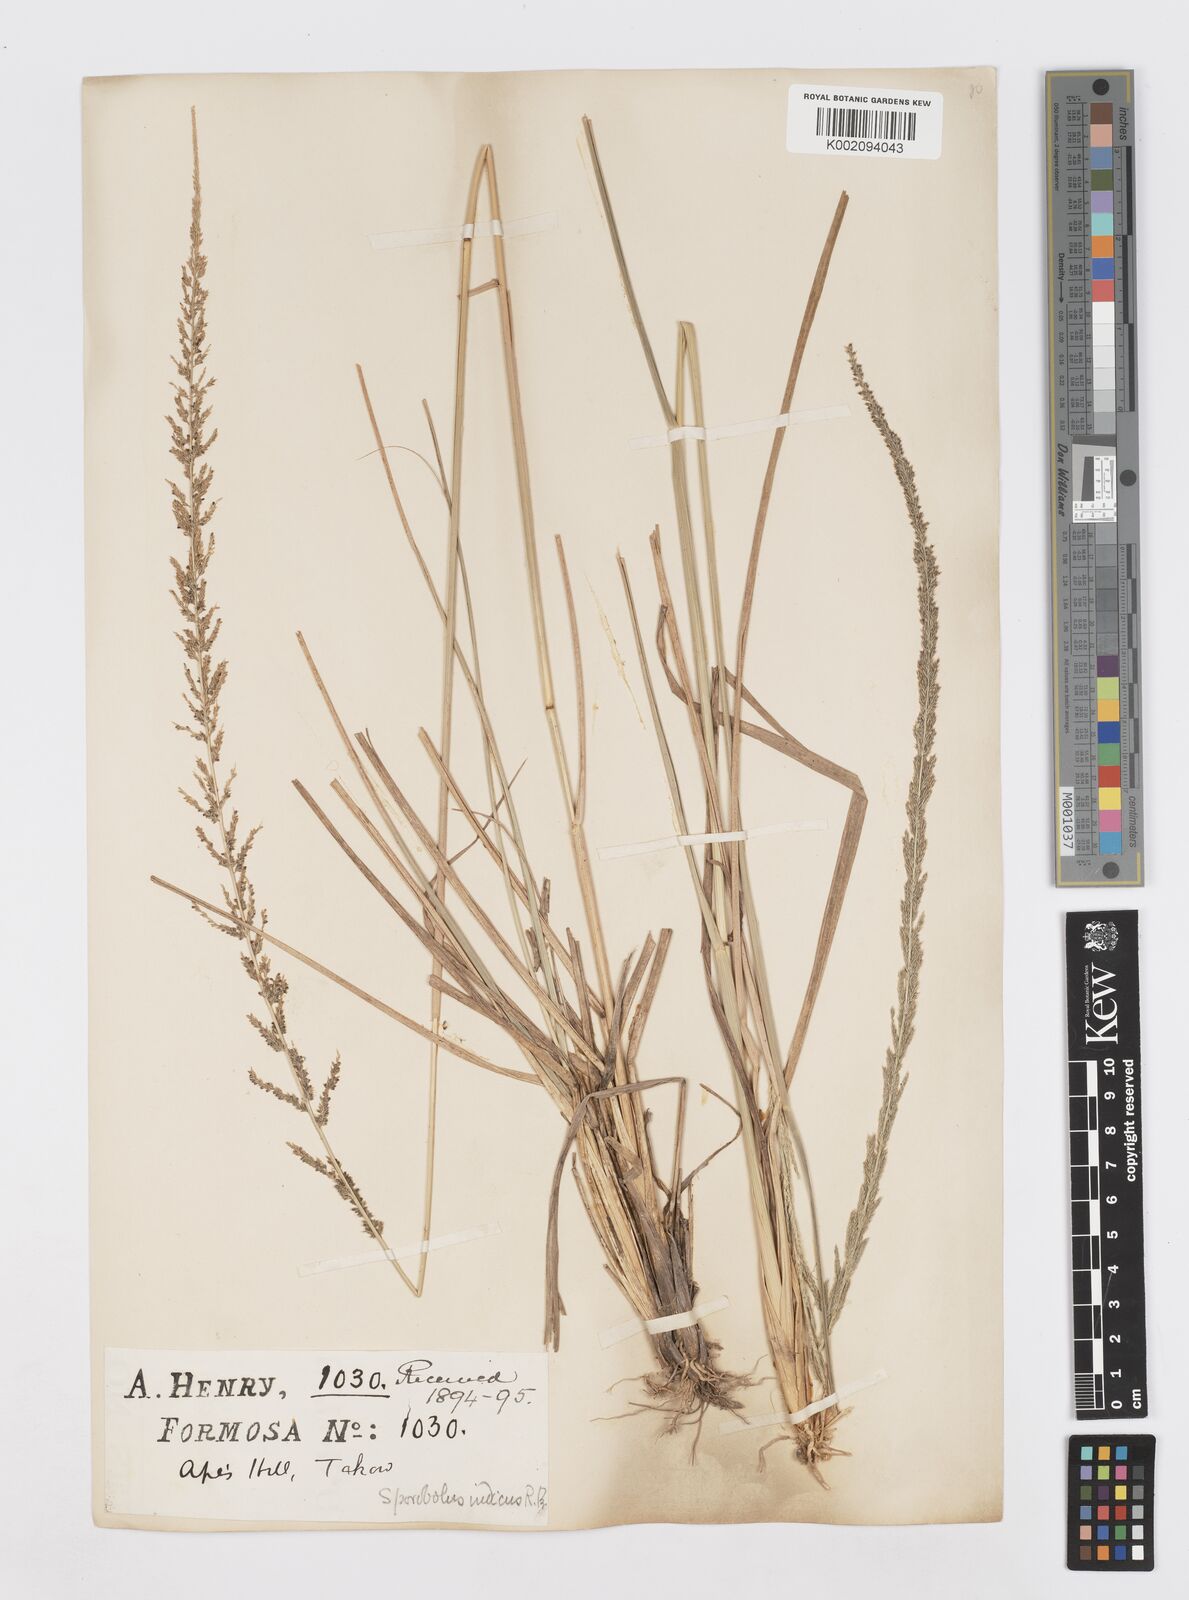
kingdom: Plantae
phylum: Tracheophyta
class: Liliopsida
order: Poales
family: Poaceae
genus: Sporobolus
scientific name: Sporobolus fertilis
